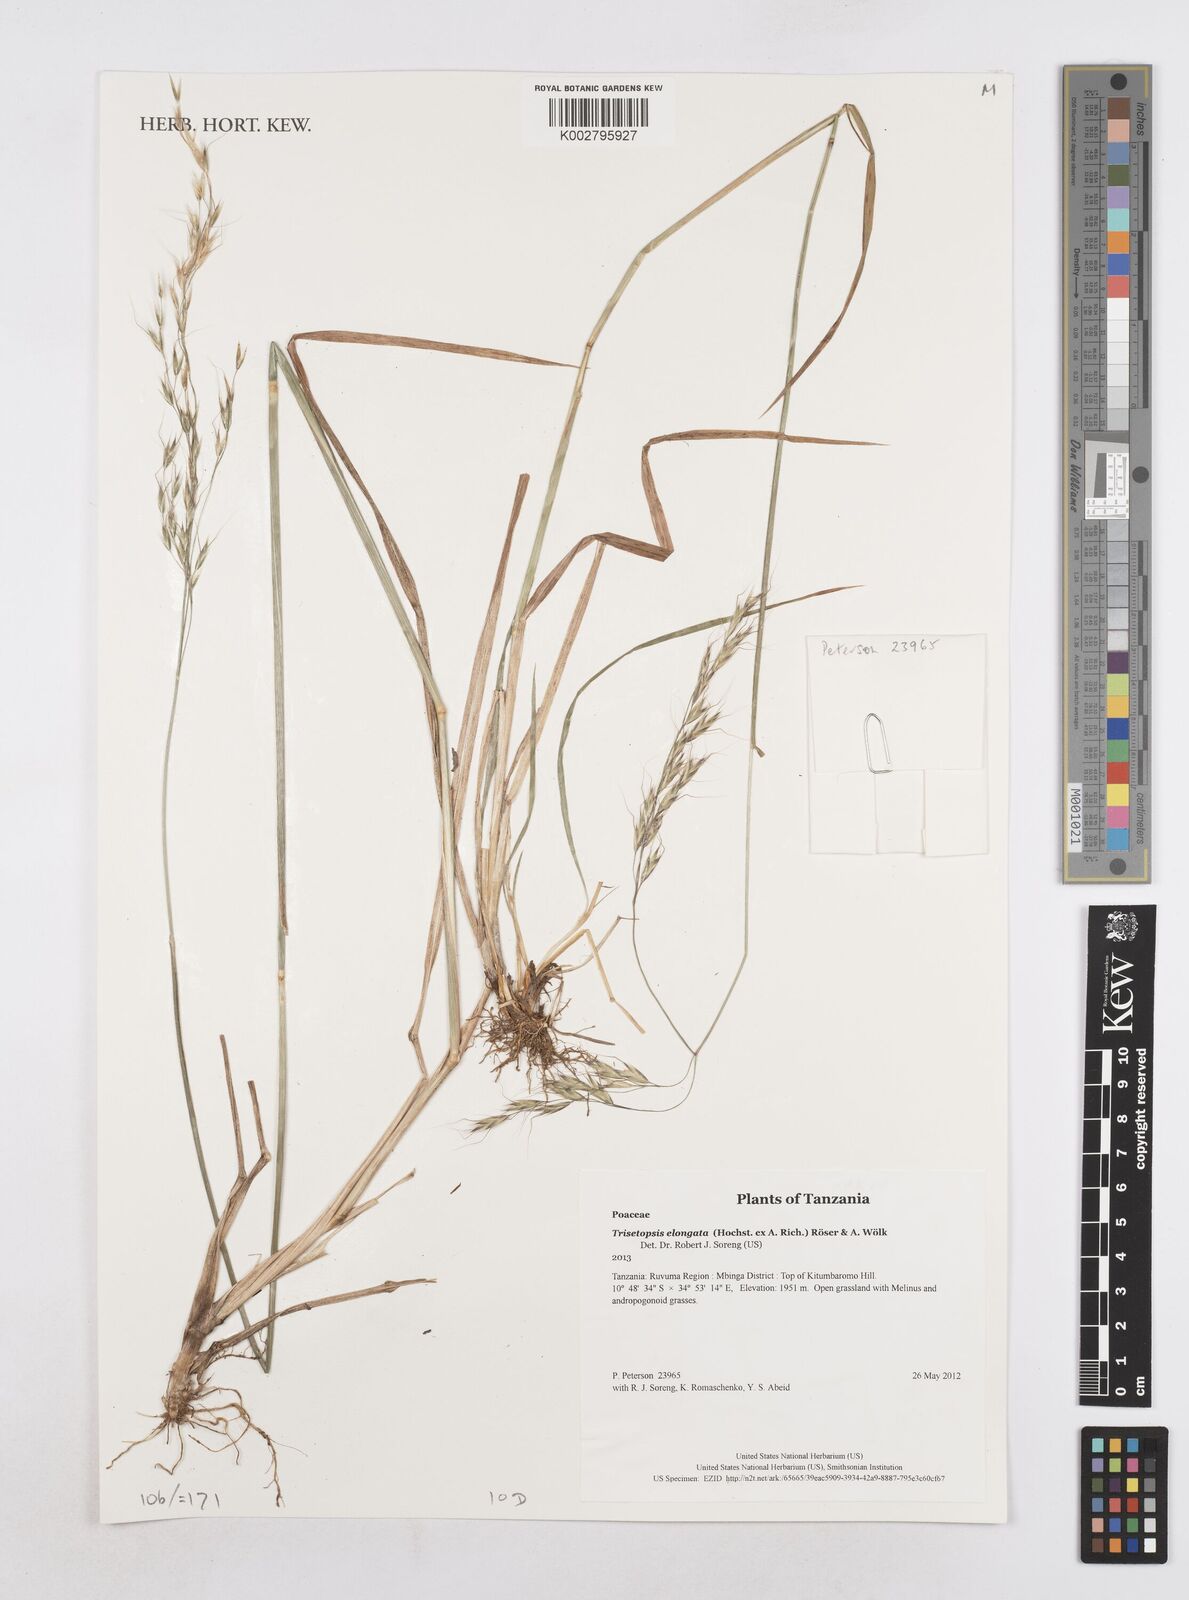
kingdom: Plantae
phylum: Tracheophyta
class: Liliopsida
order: Poales
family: Poaceae
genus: Trisetopsis
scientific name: Trisetopsis elongata
